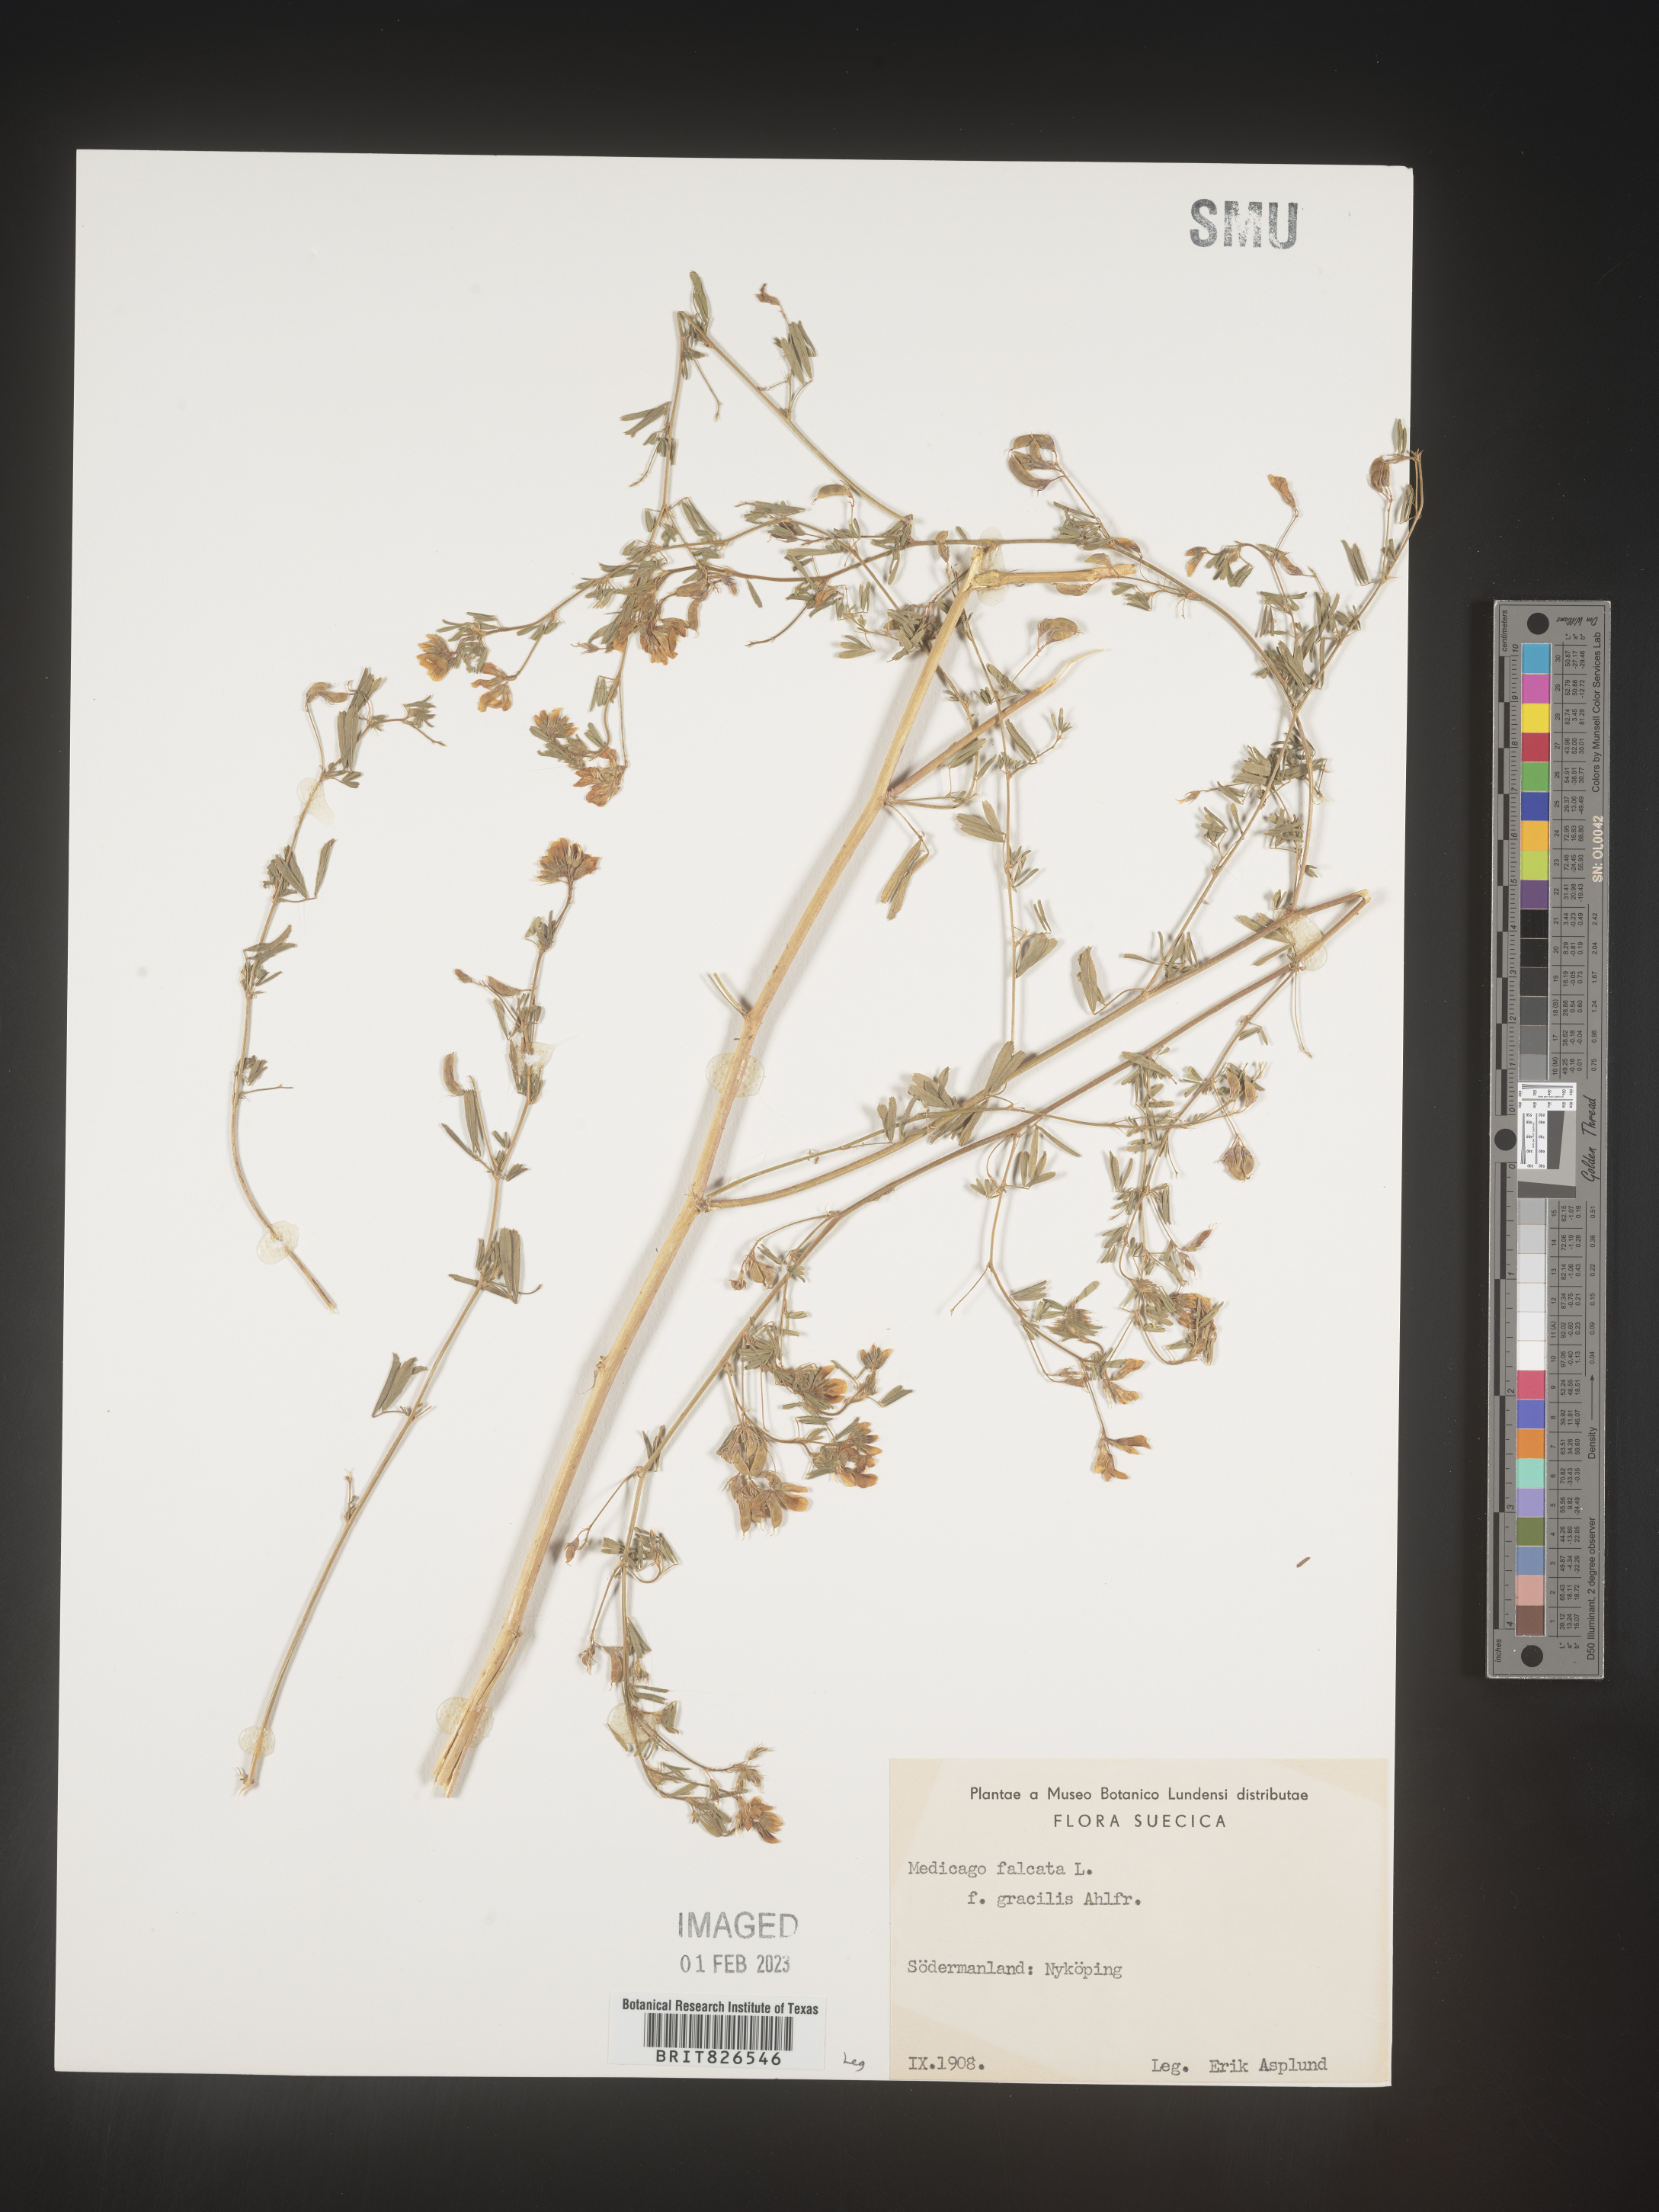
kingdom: Plantae
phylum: Tracheophyta
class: Magnoliopsida
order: Fabales
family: Fabaceae
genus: Medicago
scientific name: Medicago
